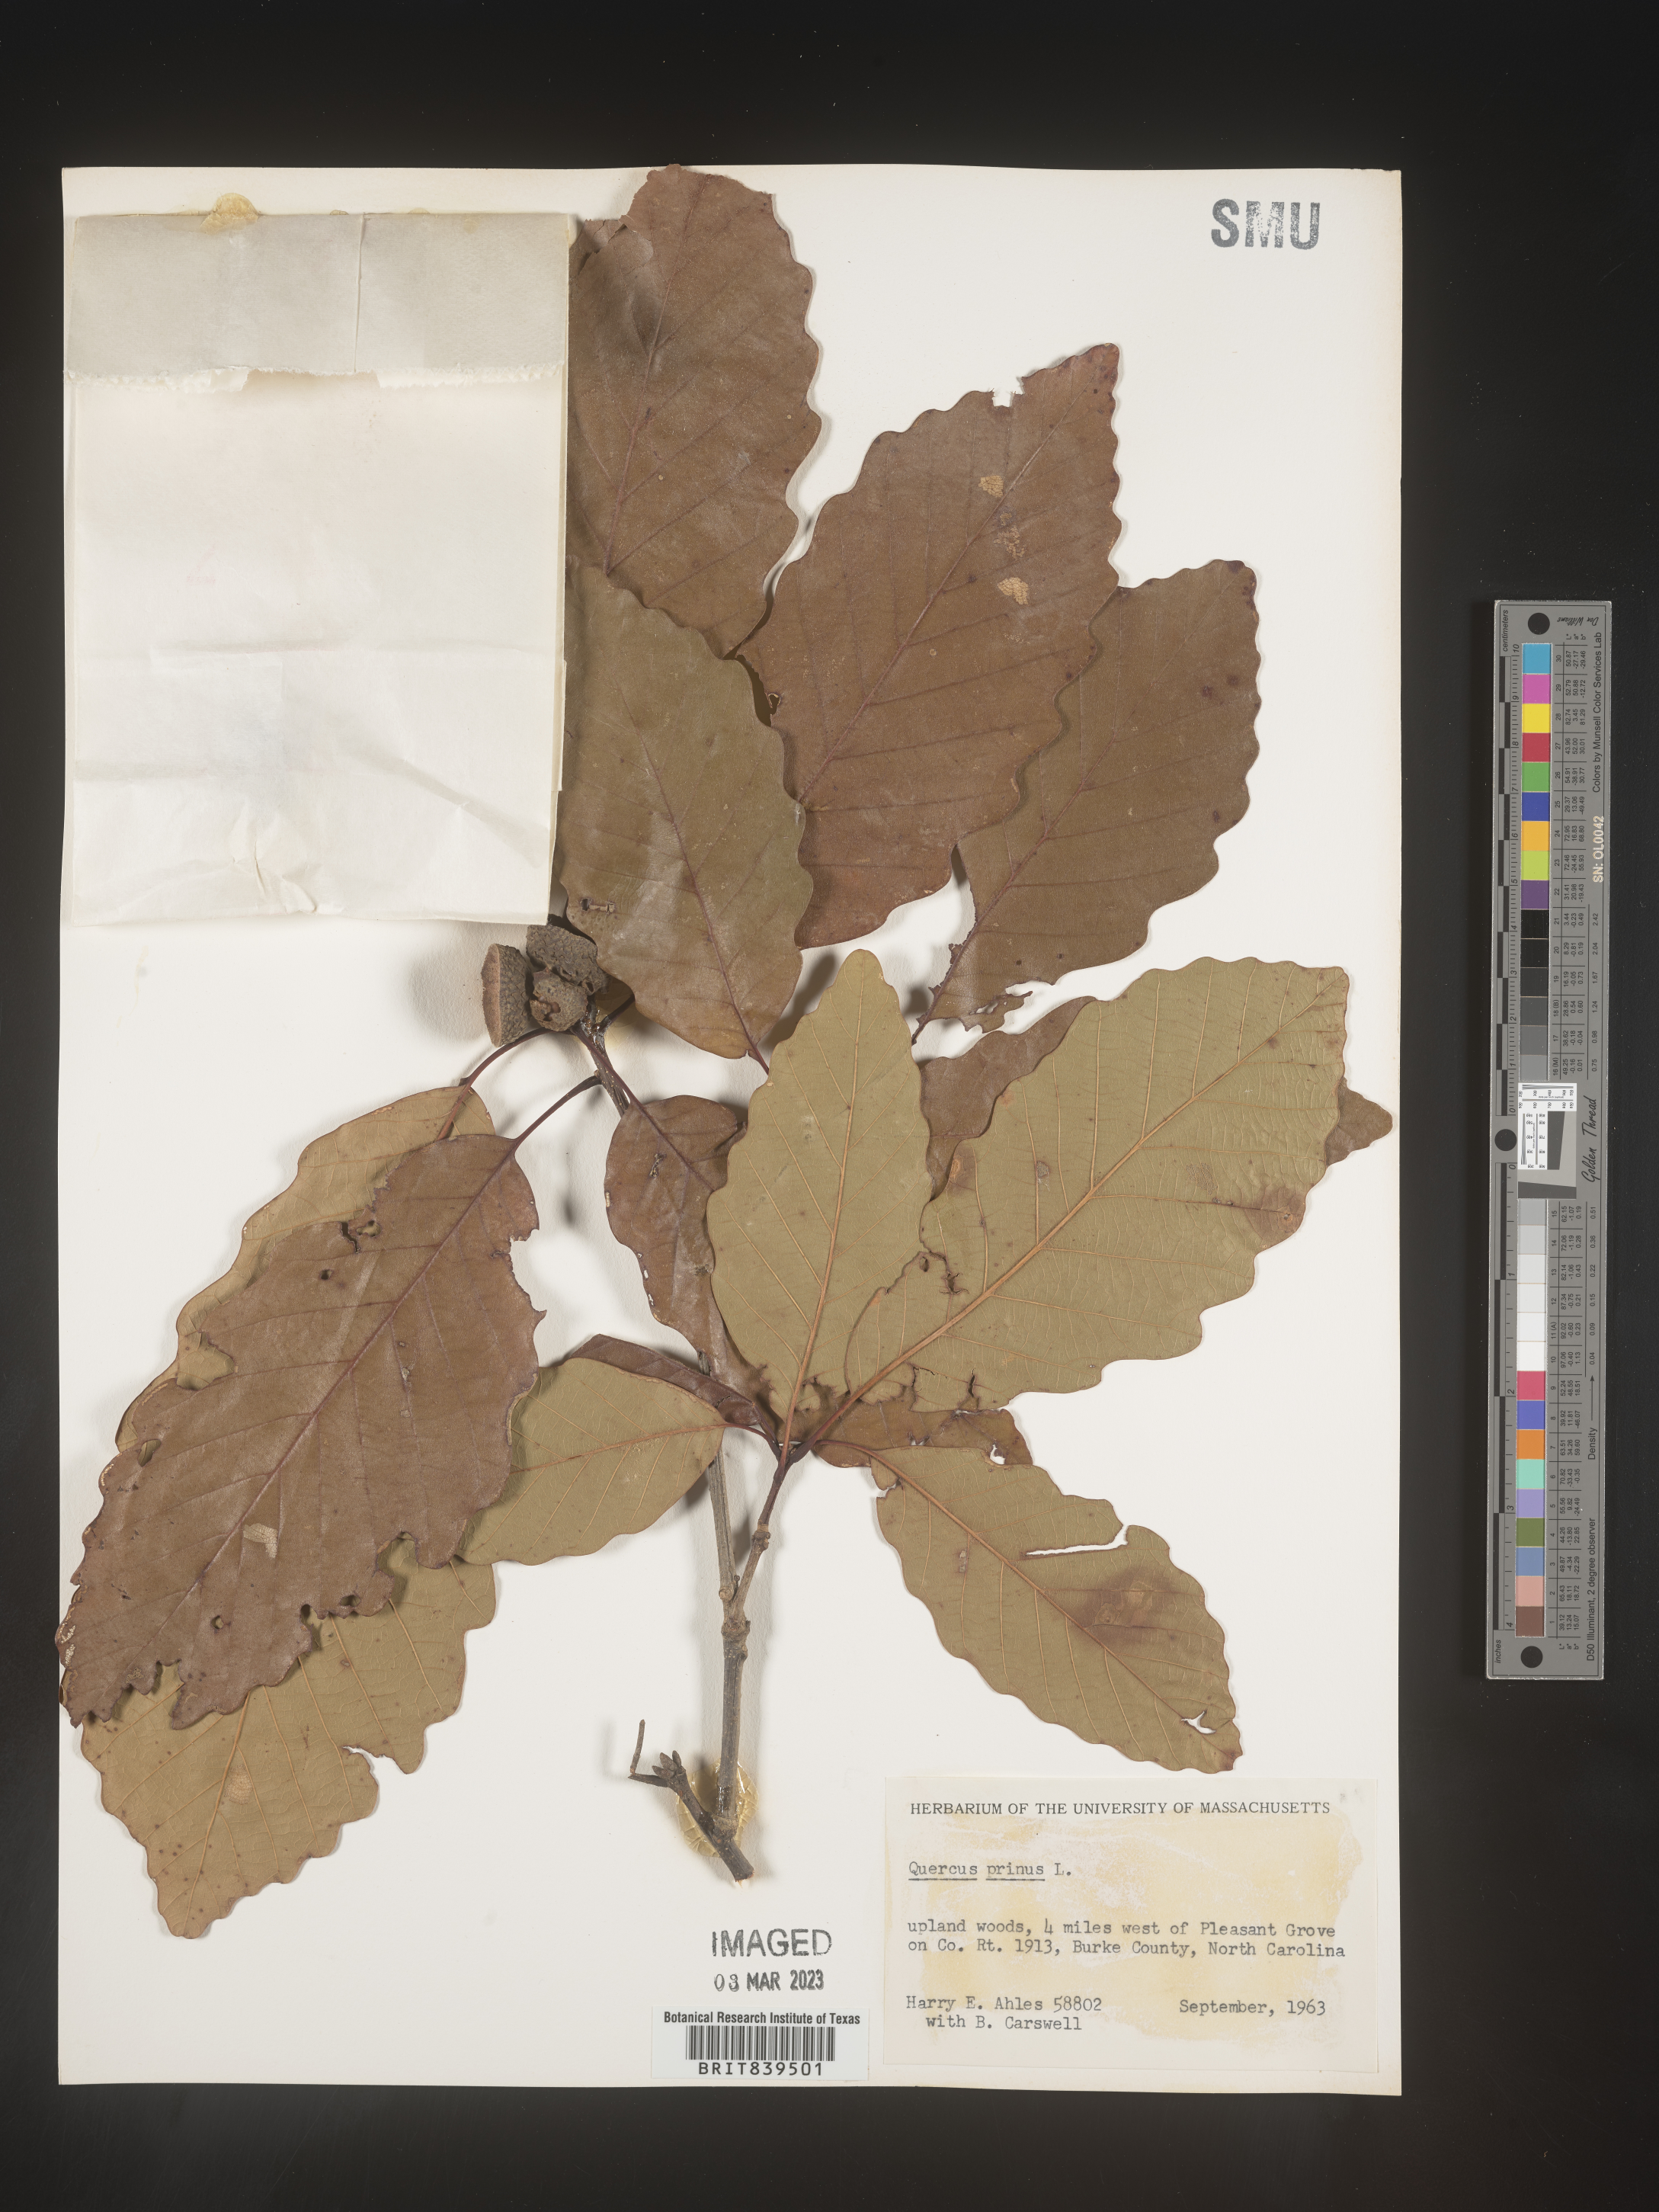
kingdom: Plantae
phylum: Tracheophyta
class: Magnoliopsida
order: Fagales
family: Fagaceae
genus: Quercus
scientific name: Quercus michauxii
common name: Swamp chestnut oak
